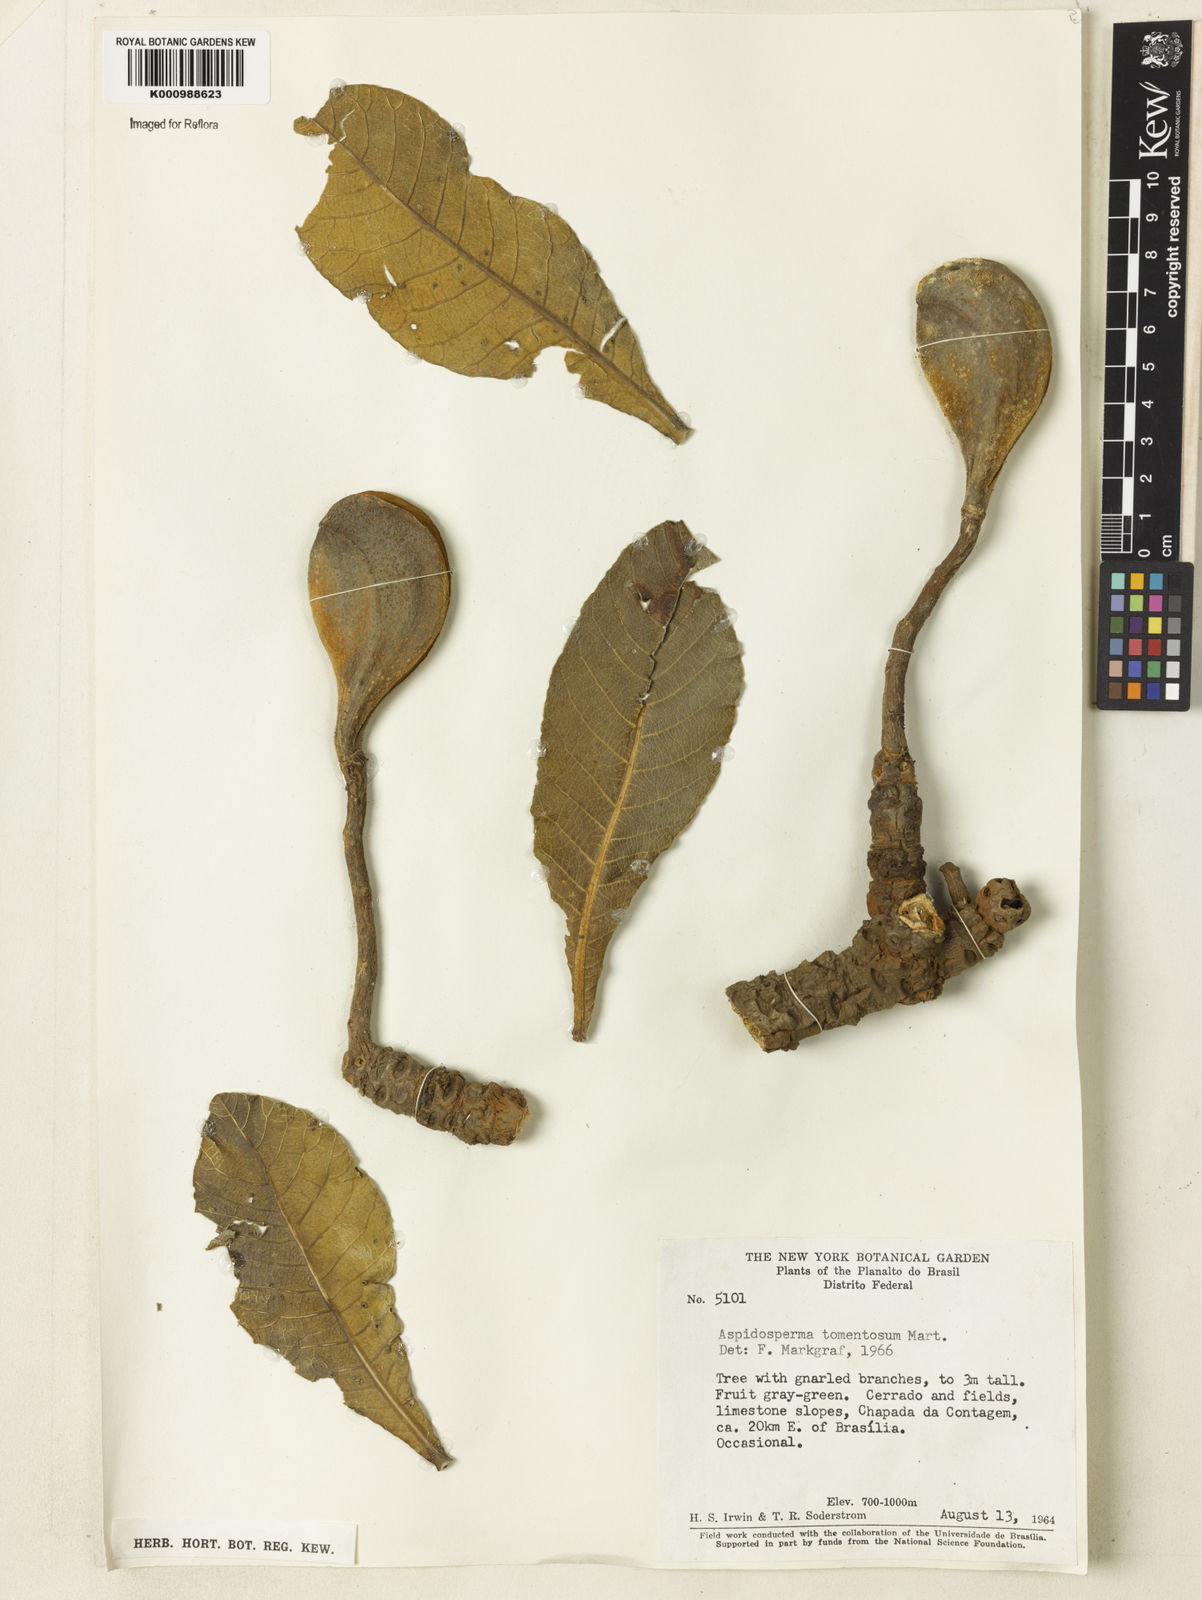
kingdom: Plantae
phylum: Tracheophyta
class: Magnoliopsida
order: Gentianales
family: Apocynaceae
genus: Aspidosperma
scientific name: Aspidosperma tomentosum
